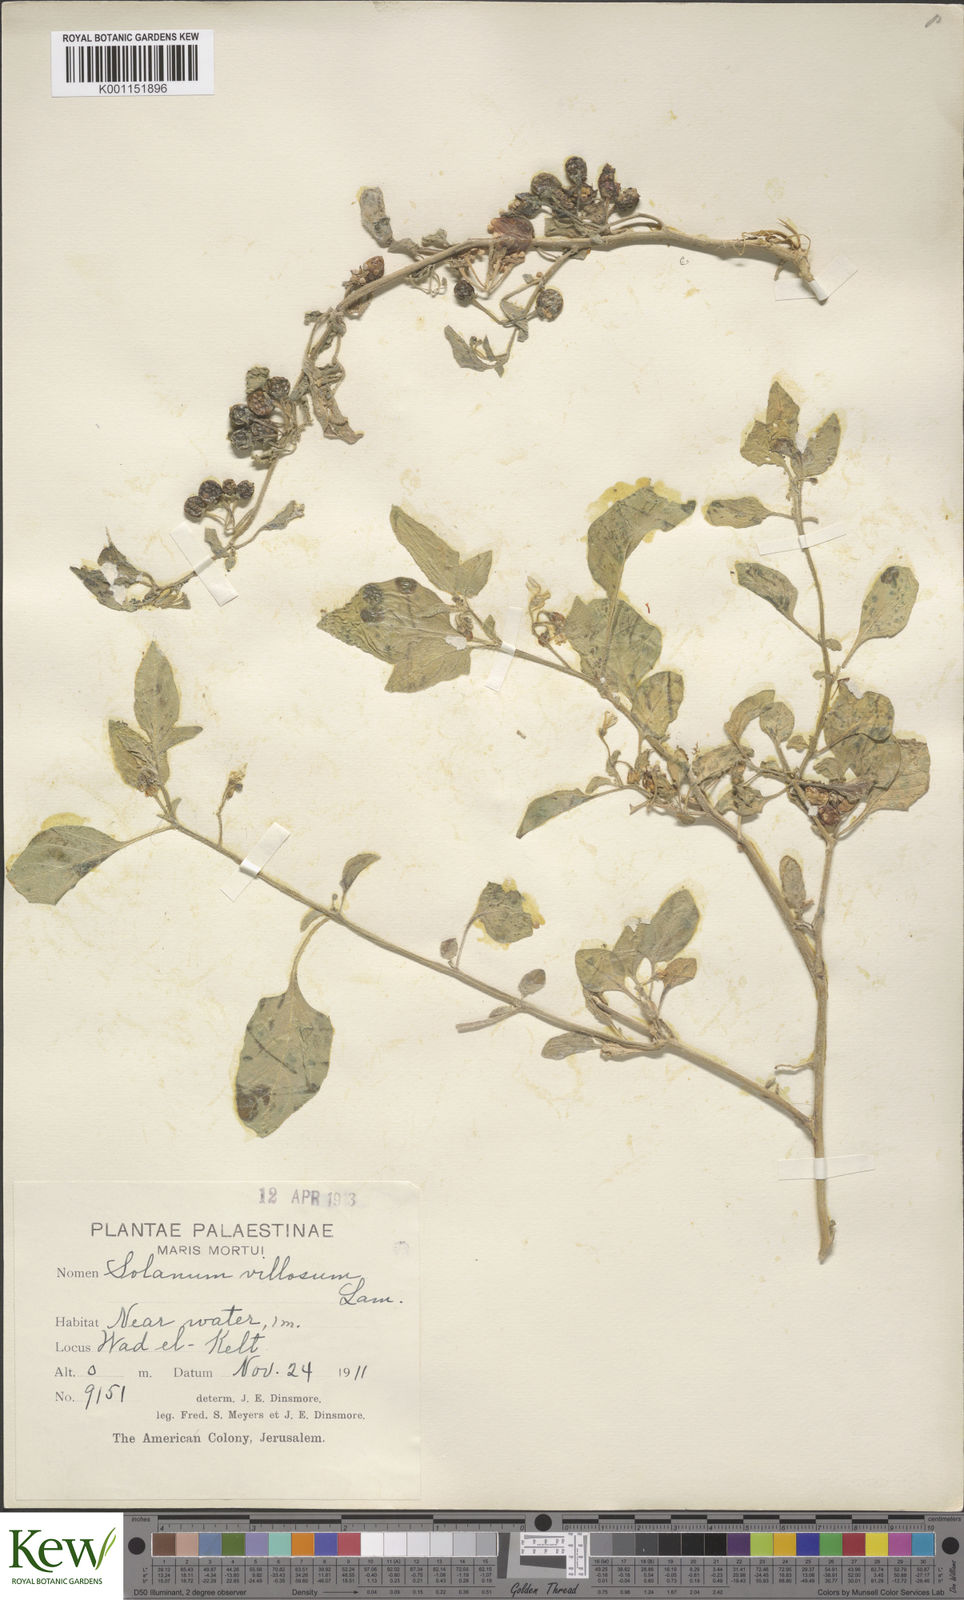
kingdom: Plantae
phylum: Tracheophyta
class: Magnoliopsida
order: Solanales
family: Solanaceae
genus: Solanum
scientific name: Solanum villosum
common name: Red nightshade
